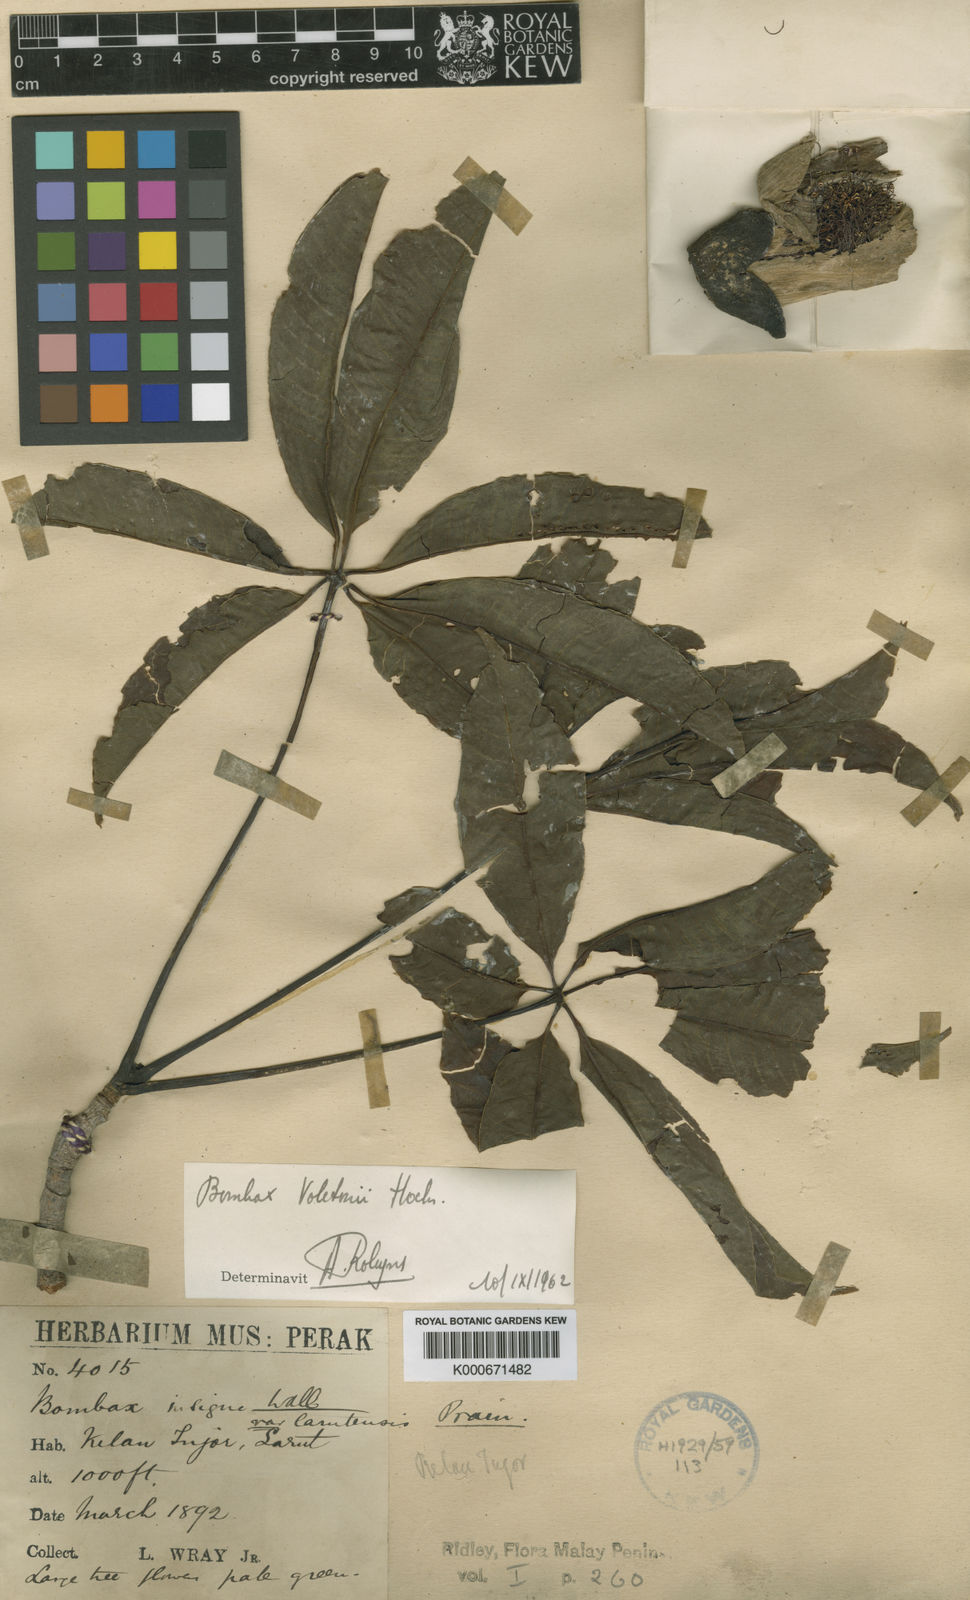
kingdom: Plantae
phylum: Tracheophyta
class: Magnoliopsida
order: Malvales
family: Malvaceae
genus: Bombax
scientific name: Bombax anceps
